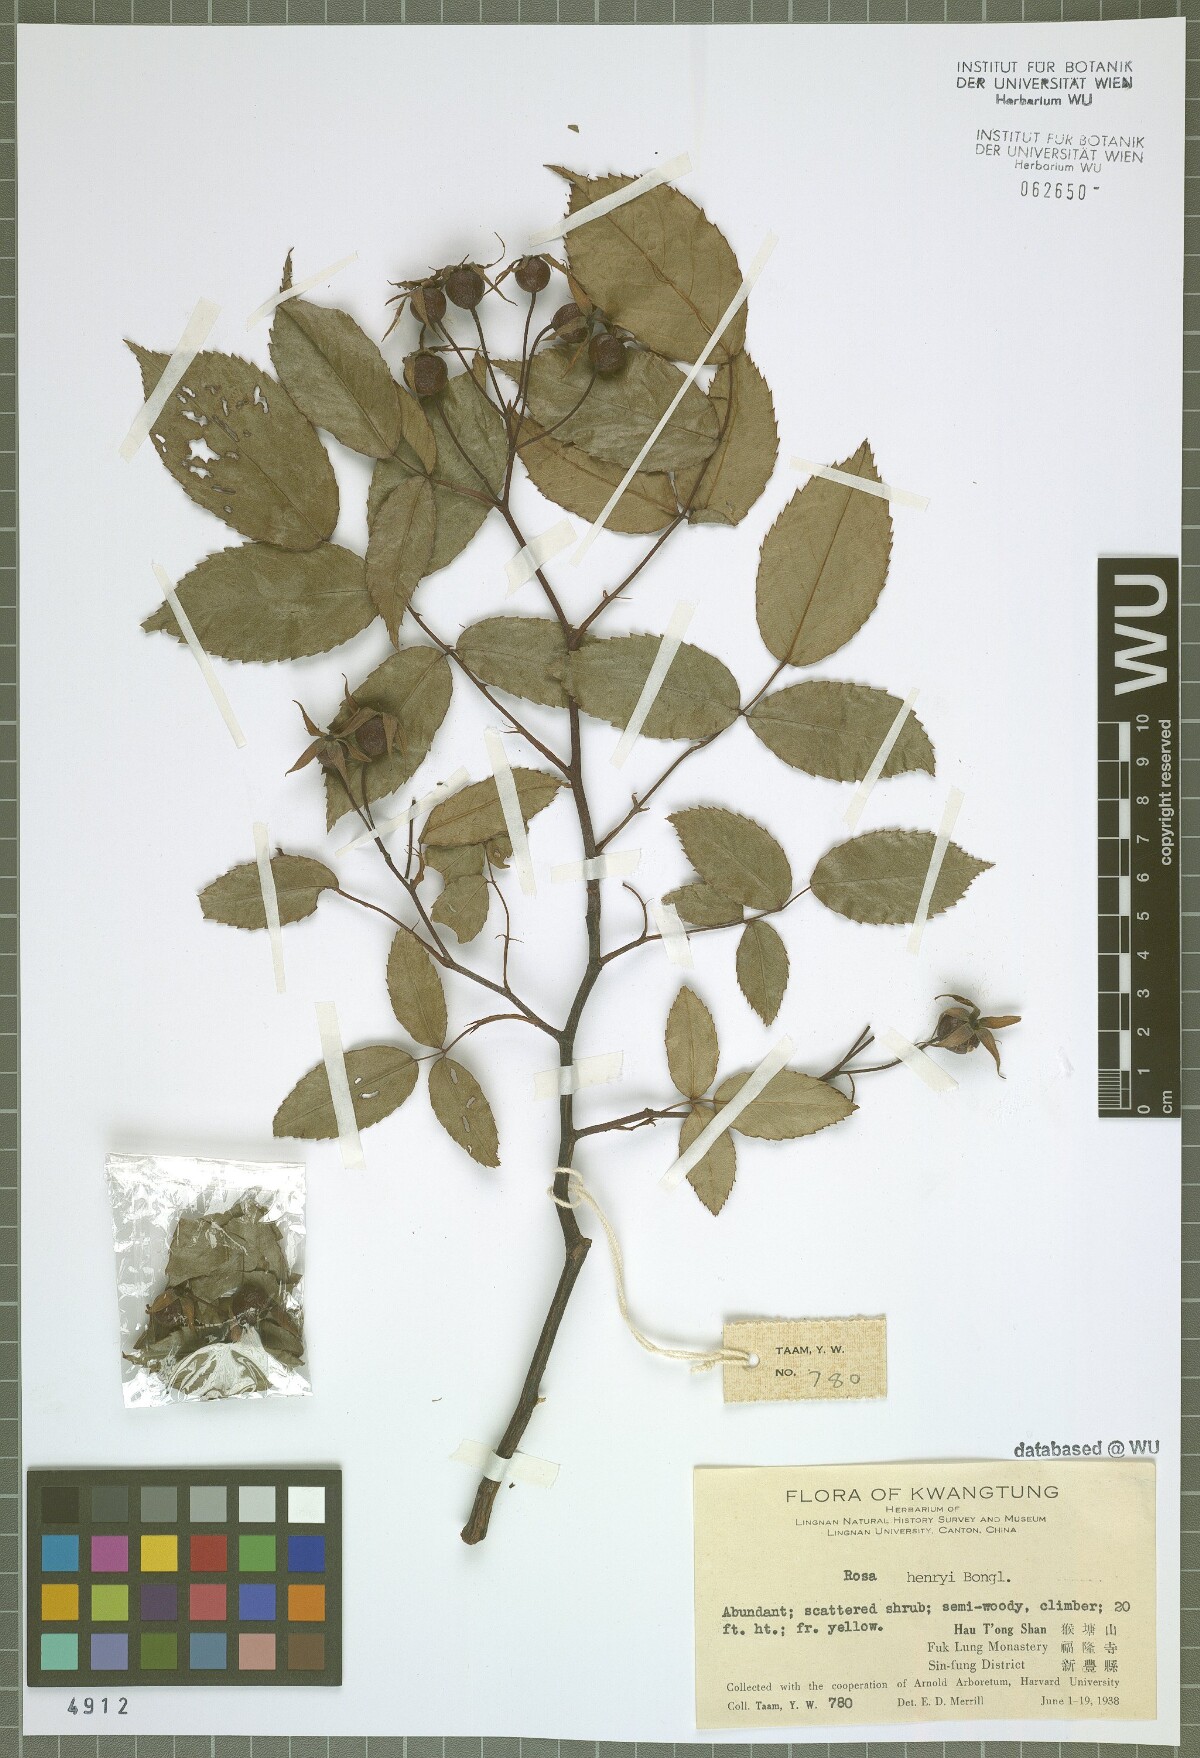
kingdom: Plantae
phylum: Tracheophyta
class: Magnoliopsida
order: Rosales
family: Rosaceae
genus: Rosa
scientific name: Rosa henryi
